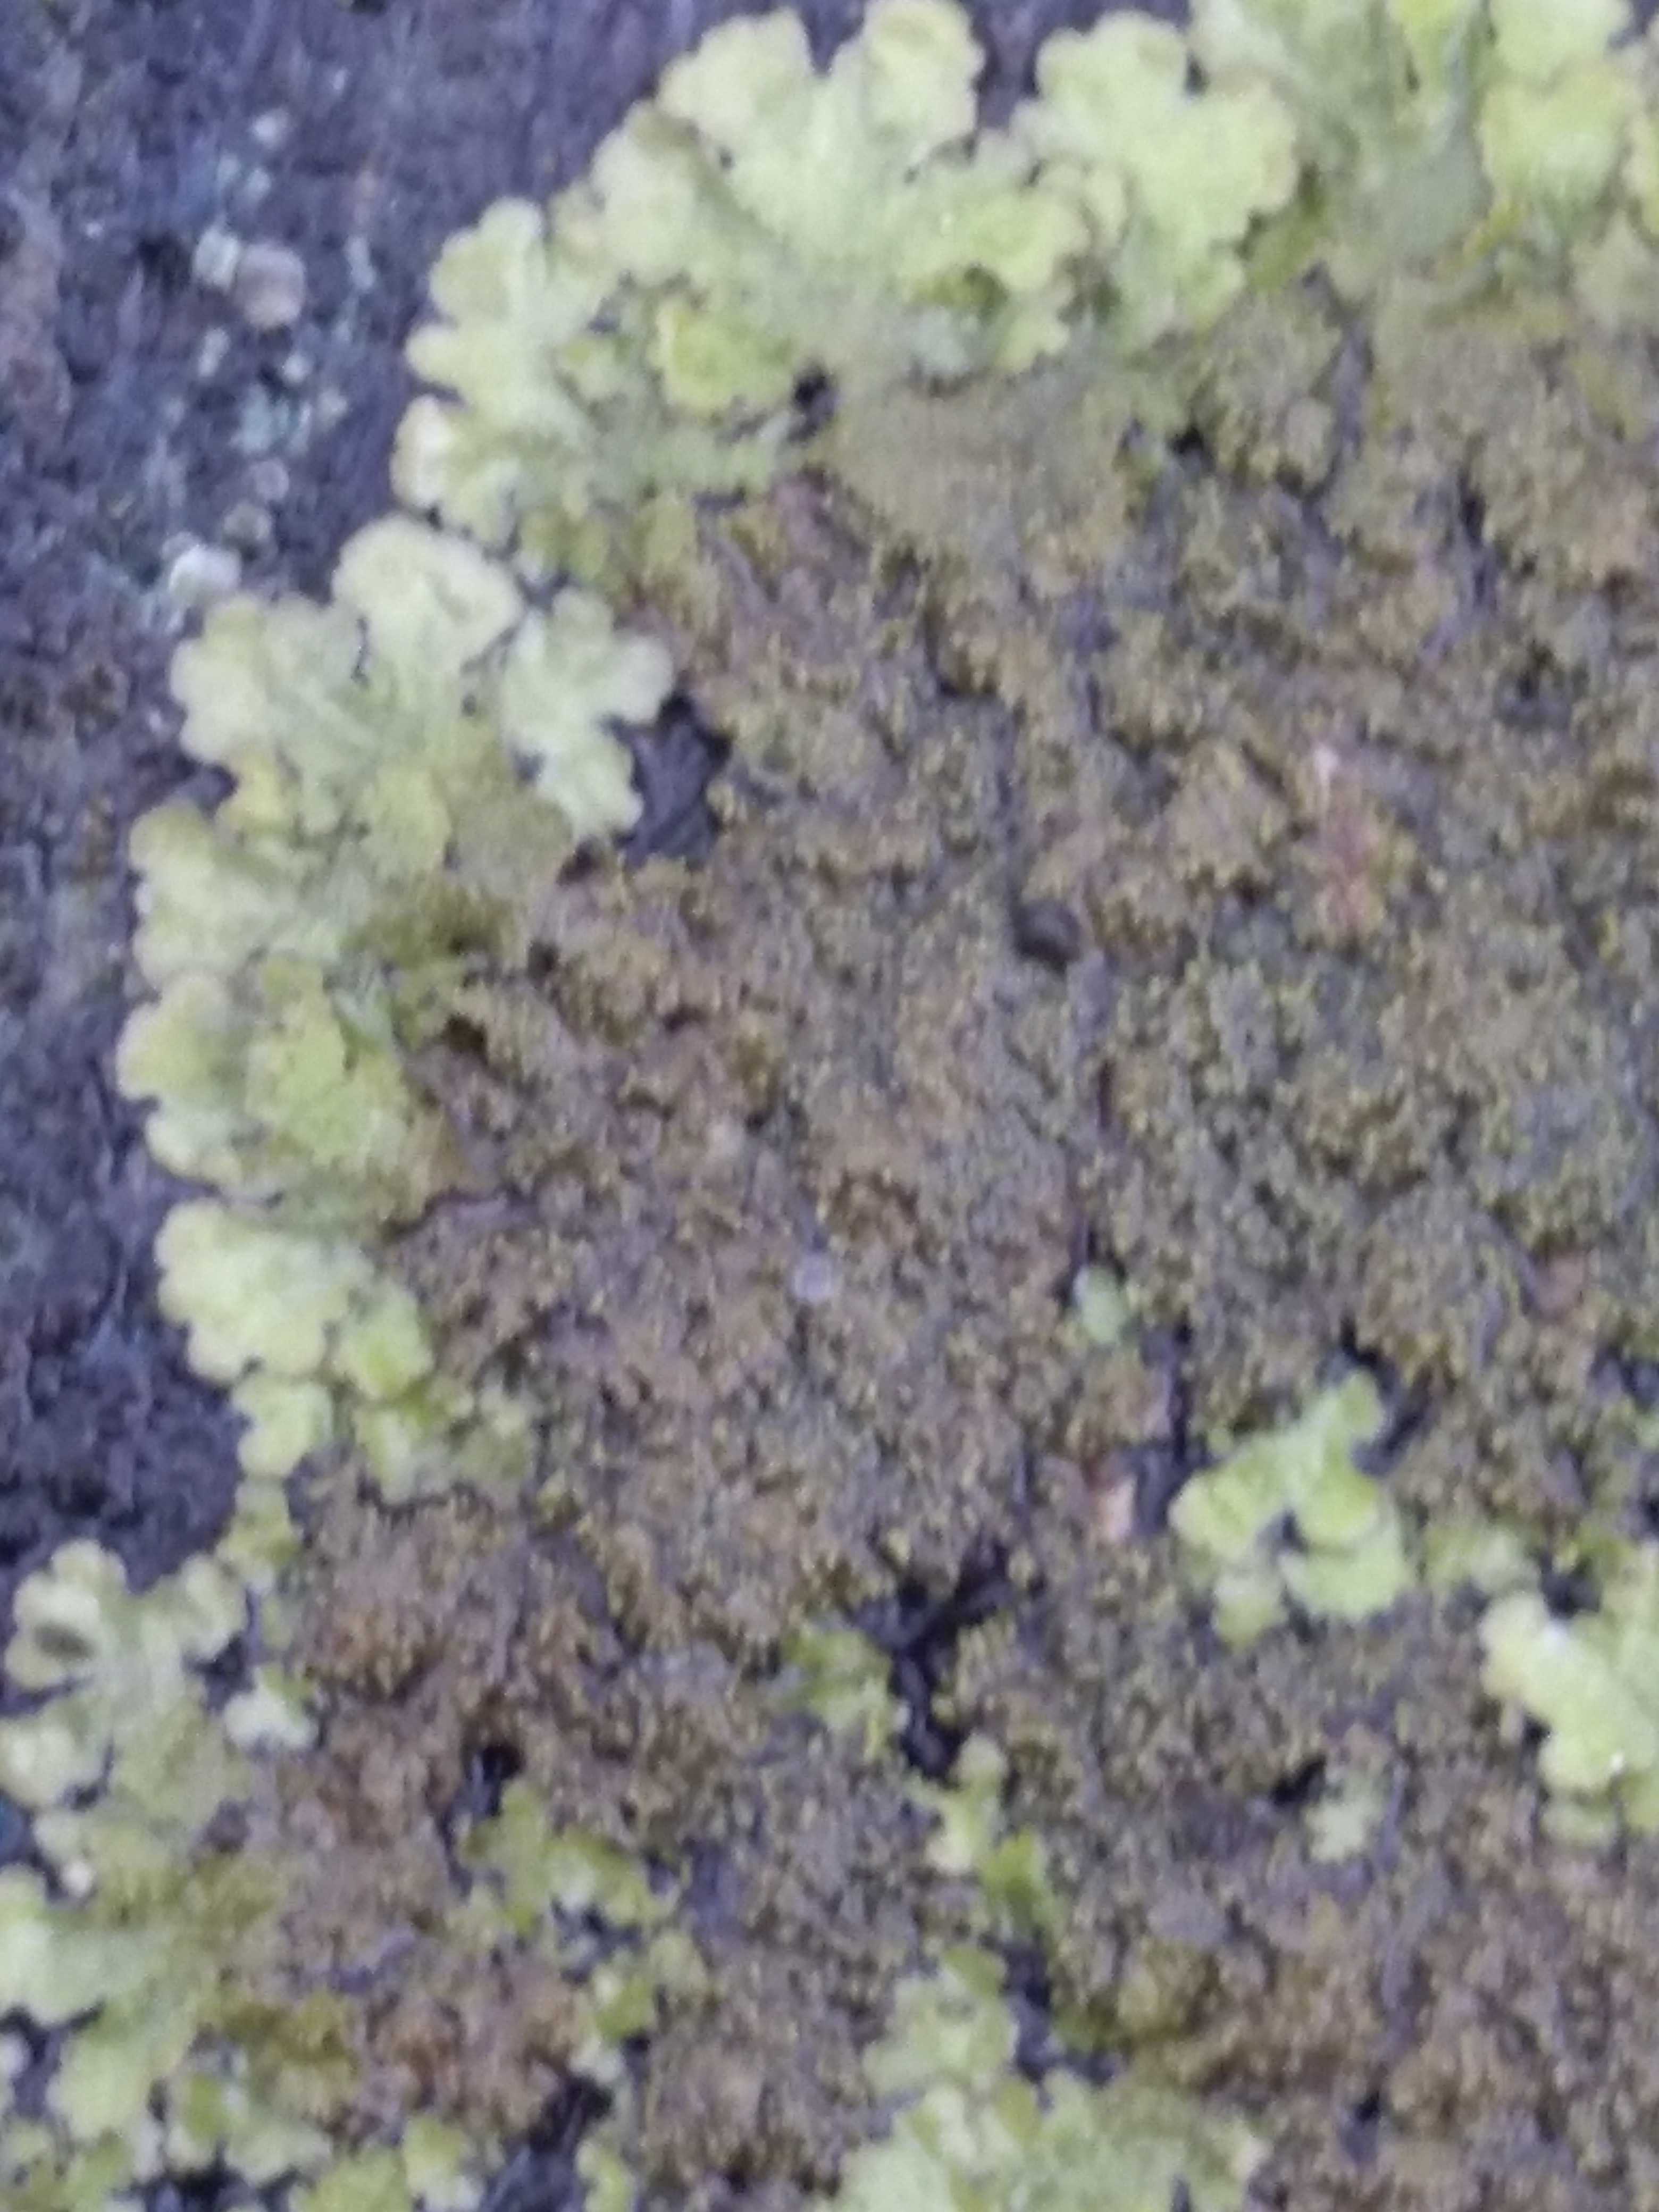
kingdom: Fungi
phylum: Ascomycota
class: Lecanoromycetes
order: Lecanorales
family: Parmeliaceae
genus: Melanelixia
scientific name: Melanelixia
